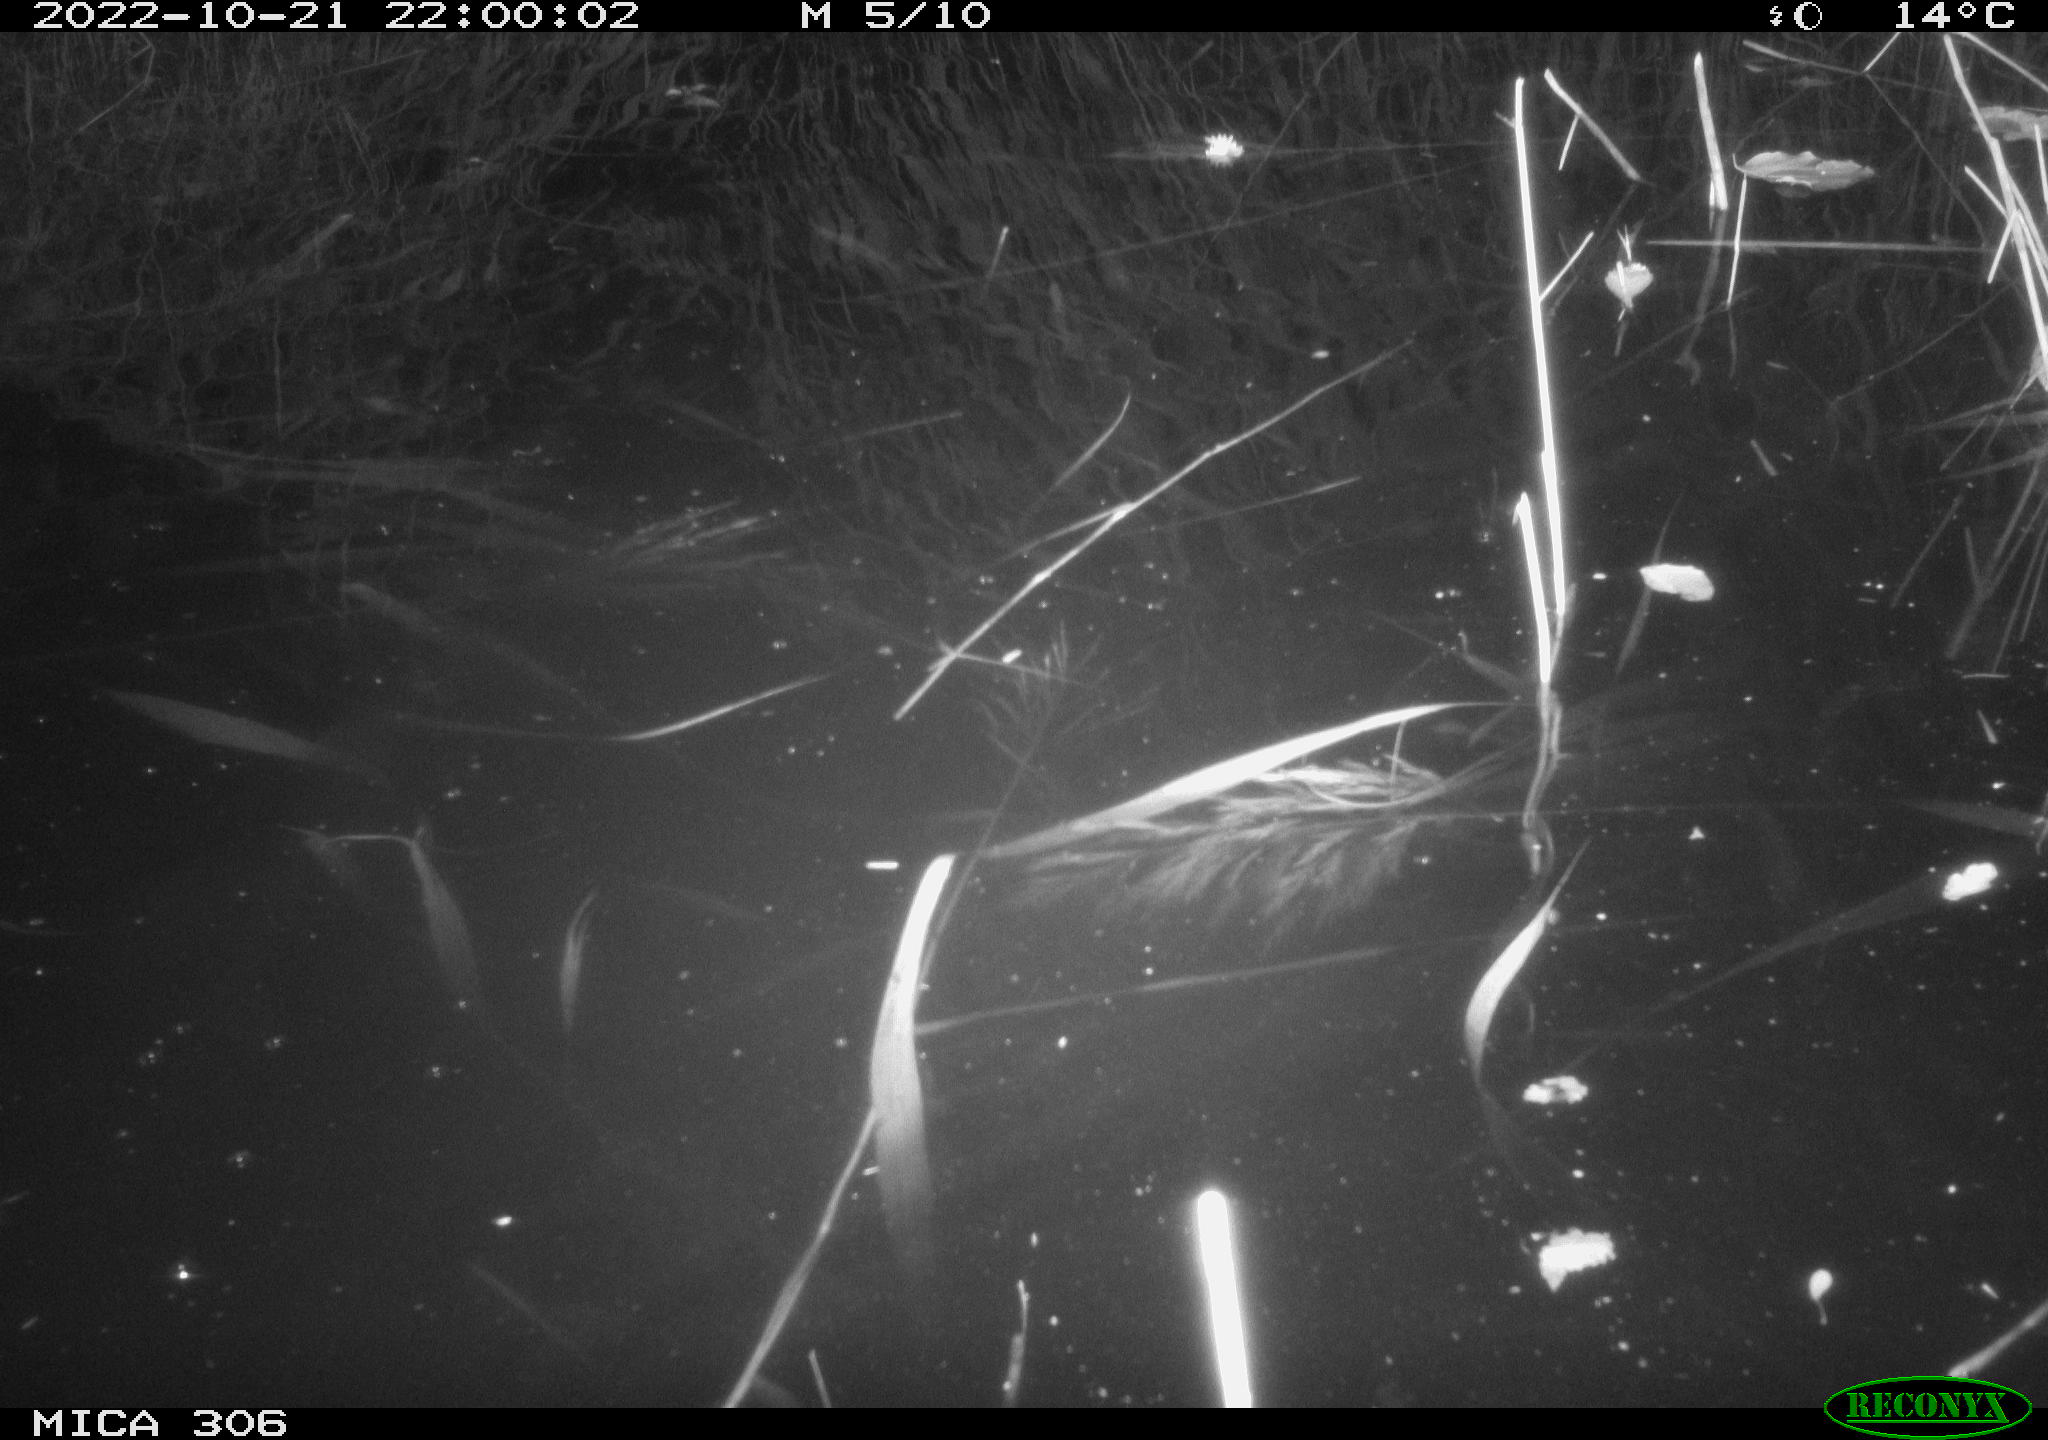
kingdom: Animalia
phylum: Chordata
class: Mammalia
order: Rodentia
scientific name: Rodentia
